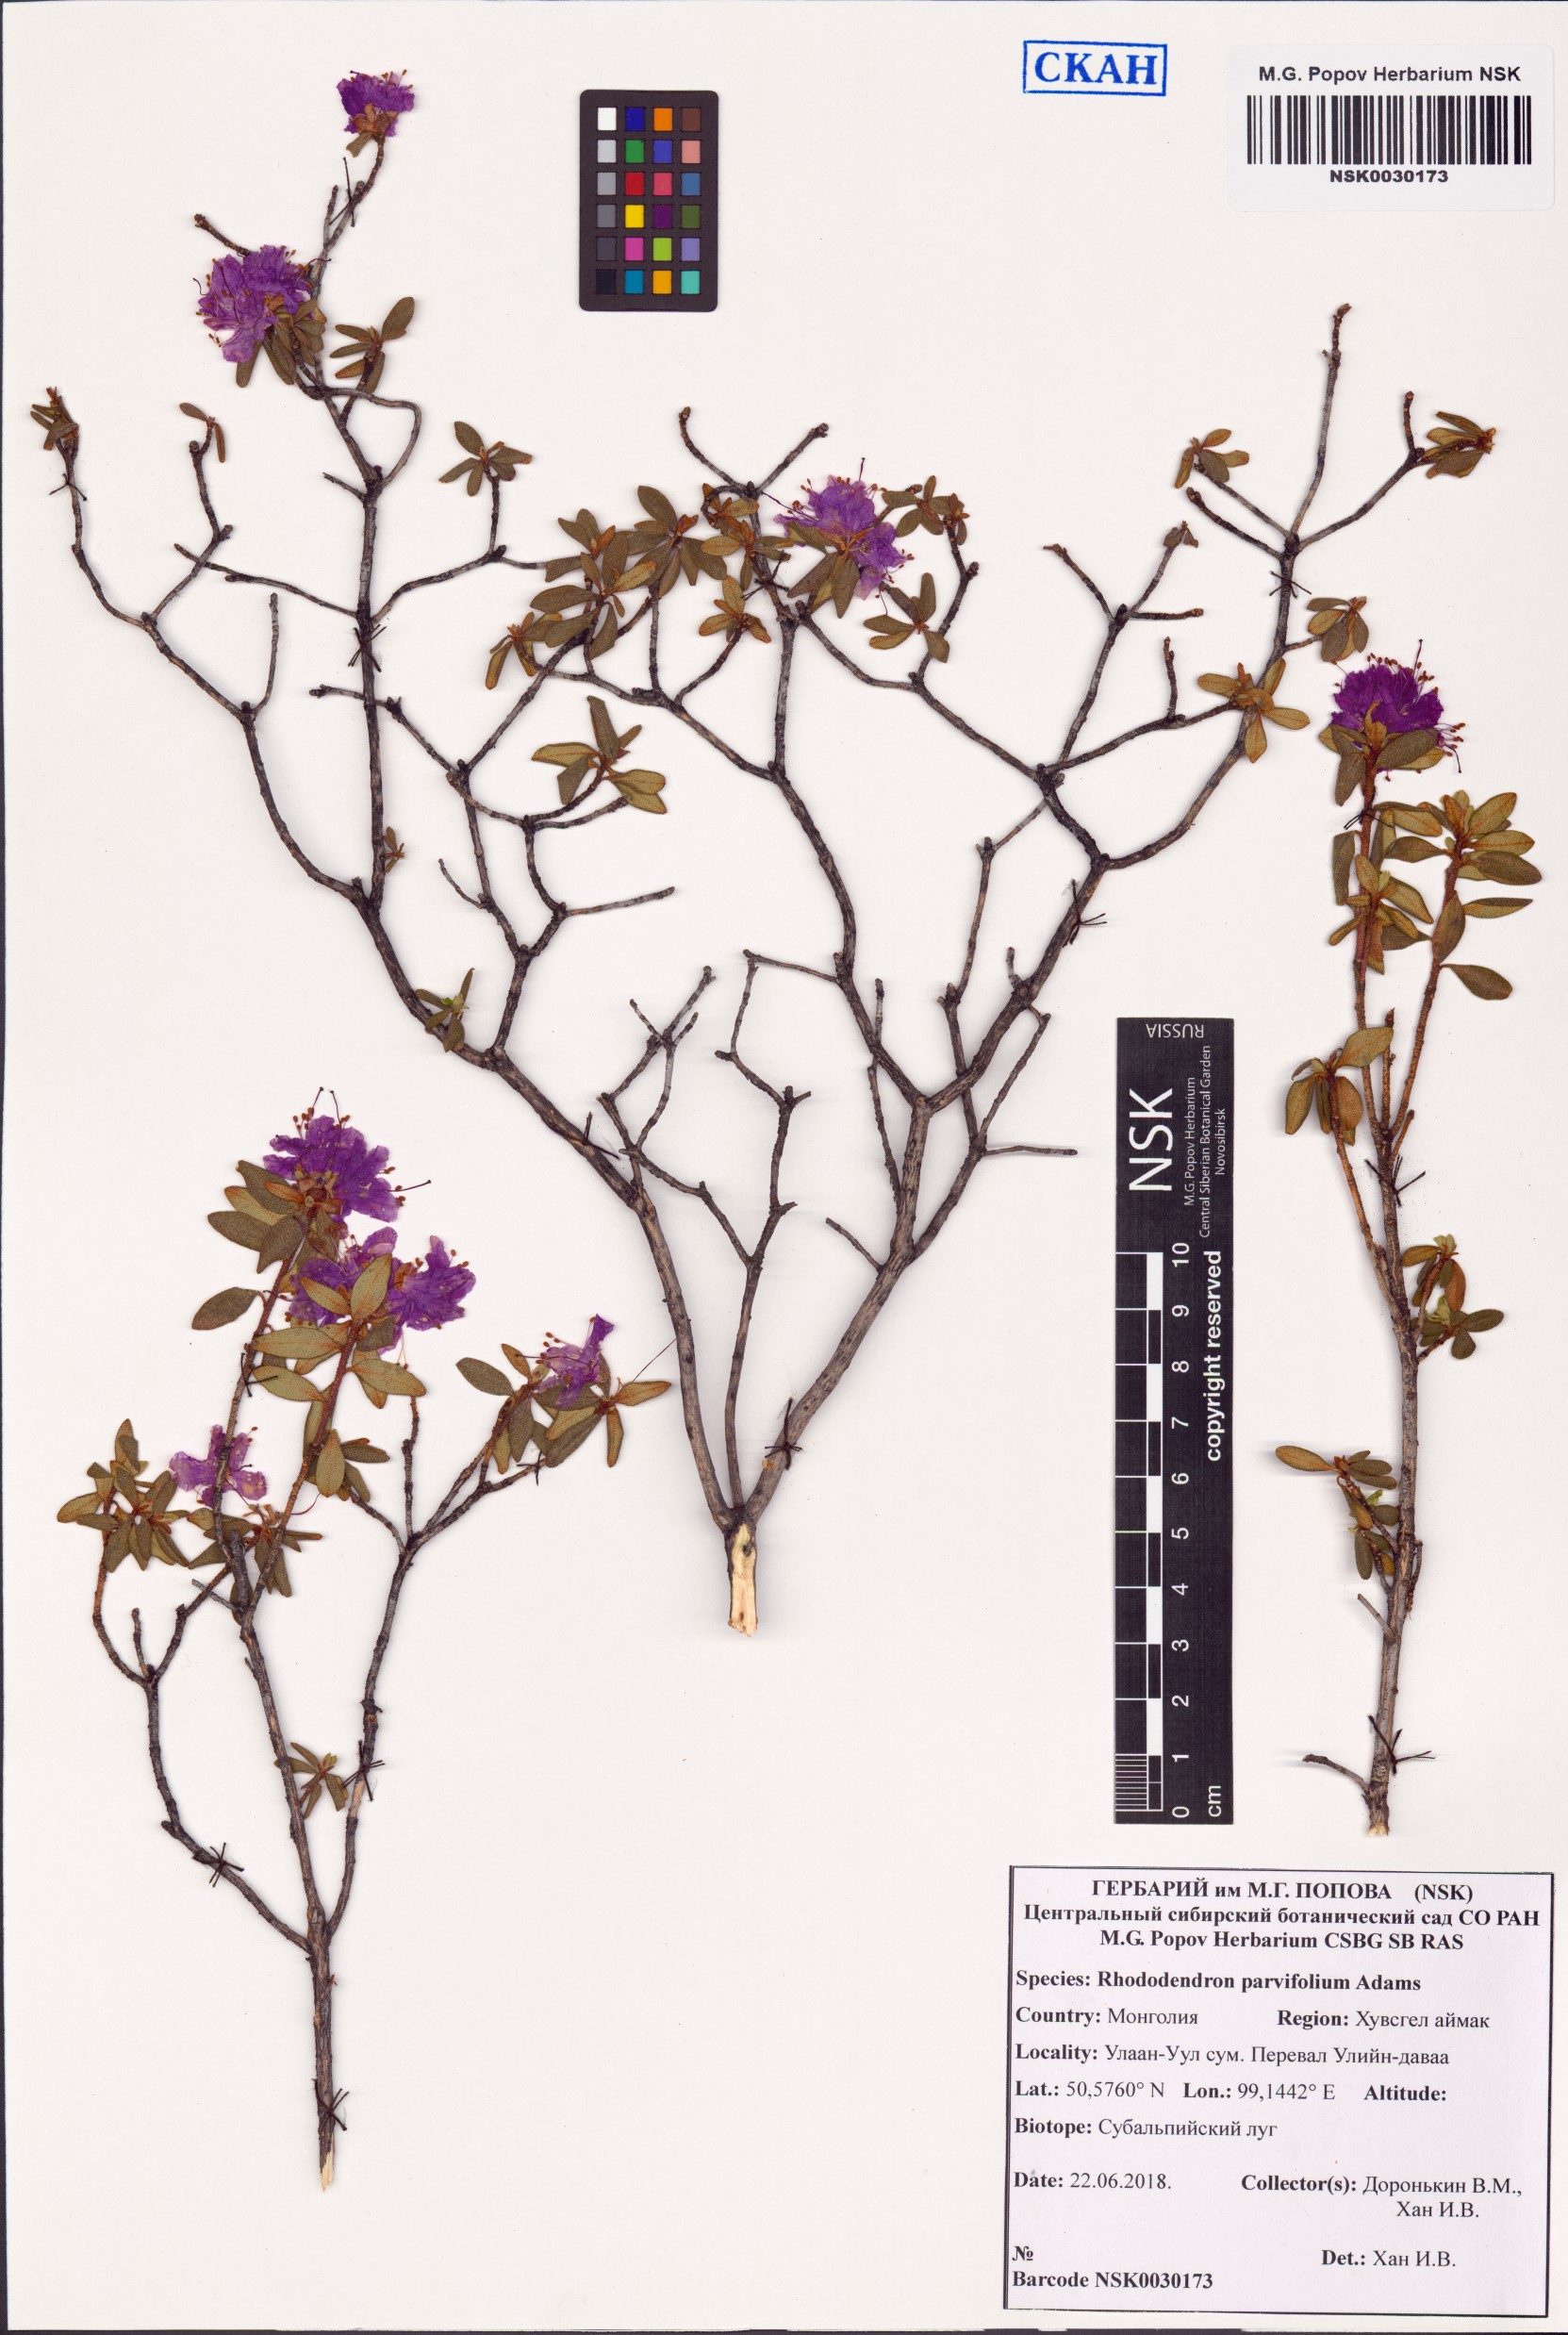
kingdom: Plantae
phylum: Tracheophyta
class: Magnoliopsida
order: Ericales
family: Ericaceae
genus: Rhododendron
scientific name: Rhododendron parvifolium
